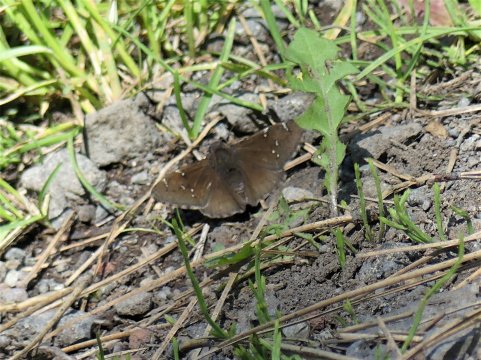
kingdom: Animalia
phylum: Arthropoda
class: Insecta
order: Lepidoptera
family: Hesperiidae
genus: Autochton
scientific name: Autochton
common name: Northern Cloudywing
